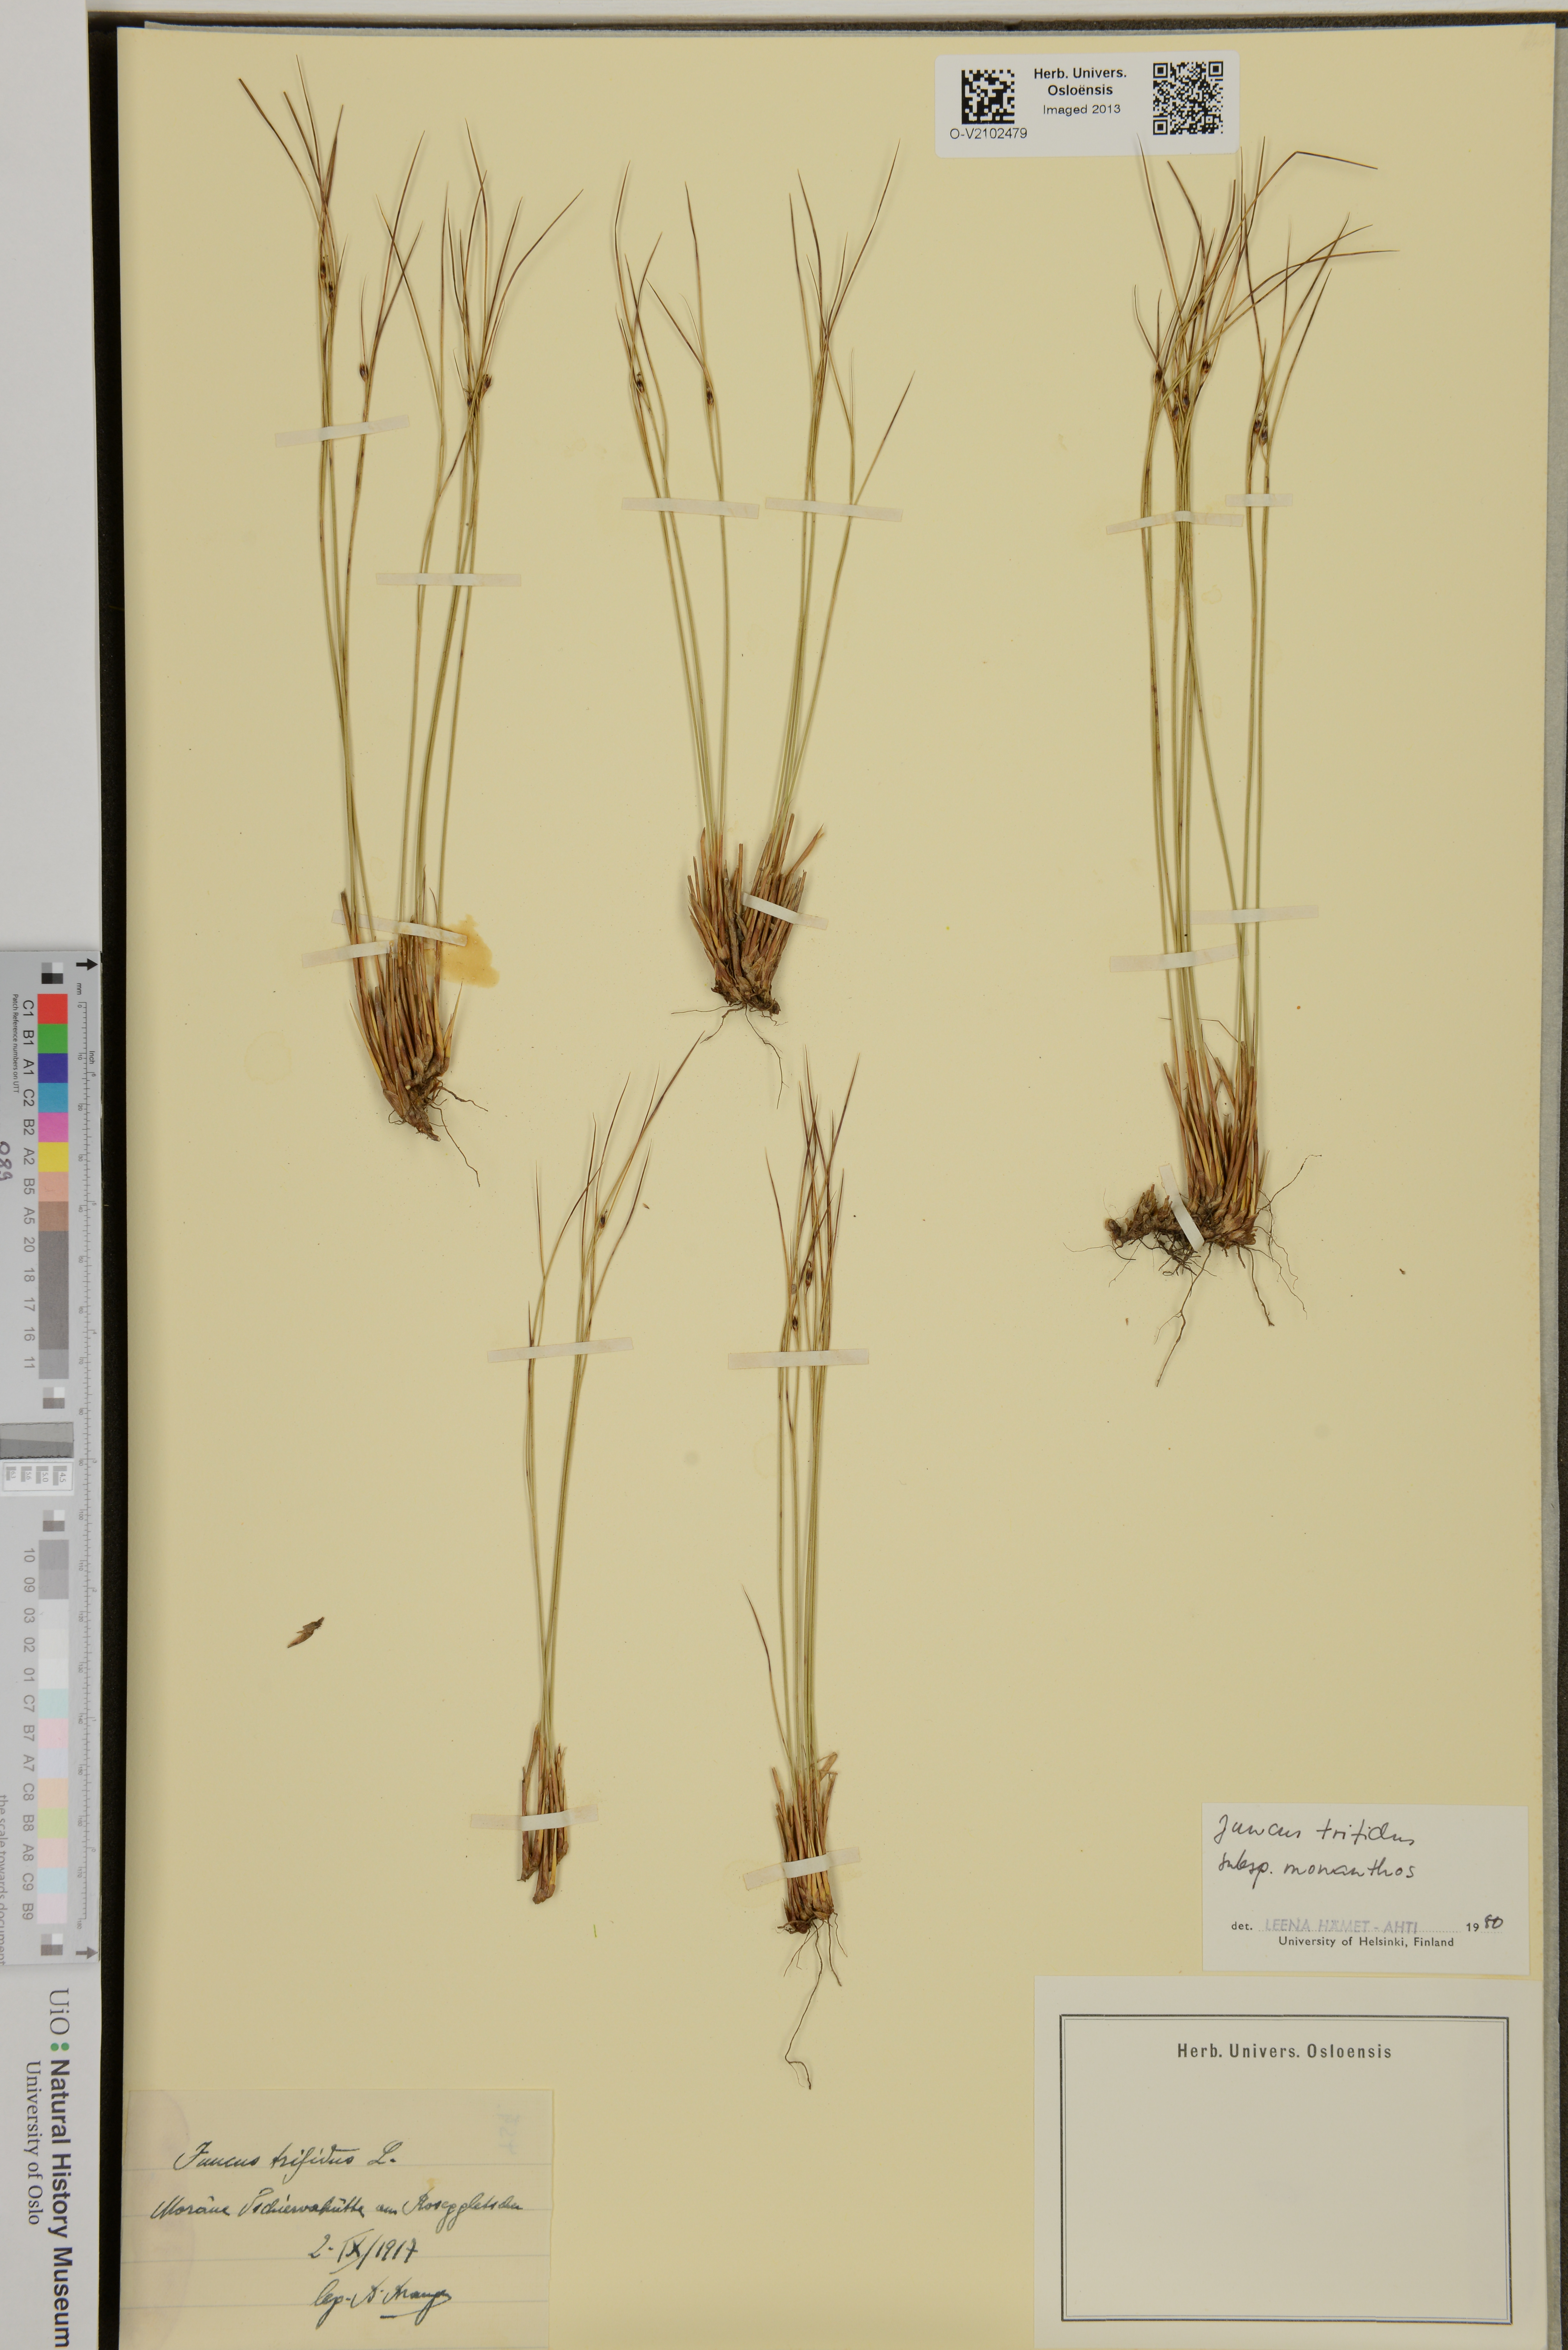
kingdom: Plantae
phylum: Tracheophyta
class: Liliopsida
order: Poales
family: Juncaceae
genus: Oreojuncus
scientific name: Oreojuncus trifidus
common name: Highland rush
